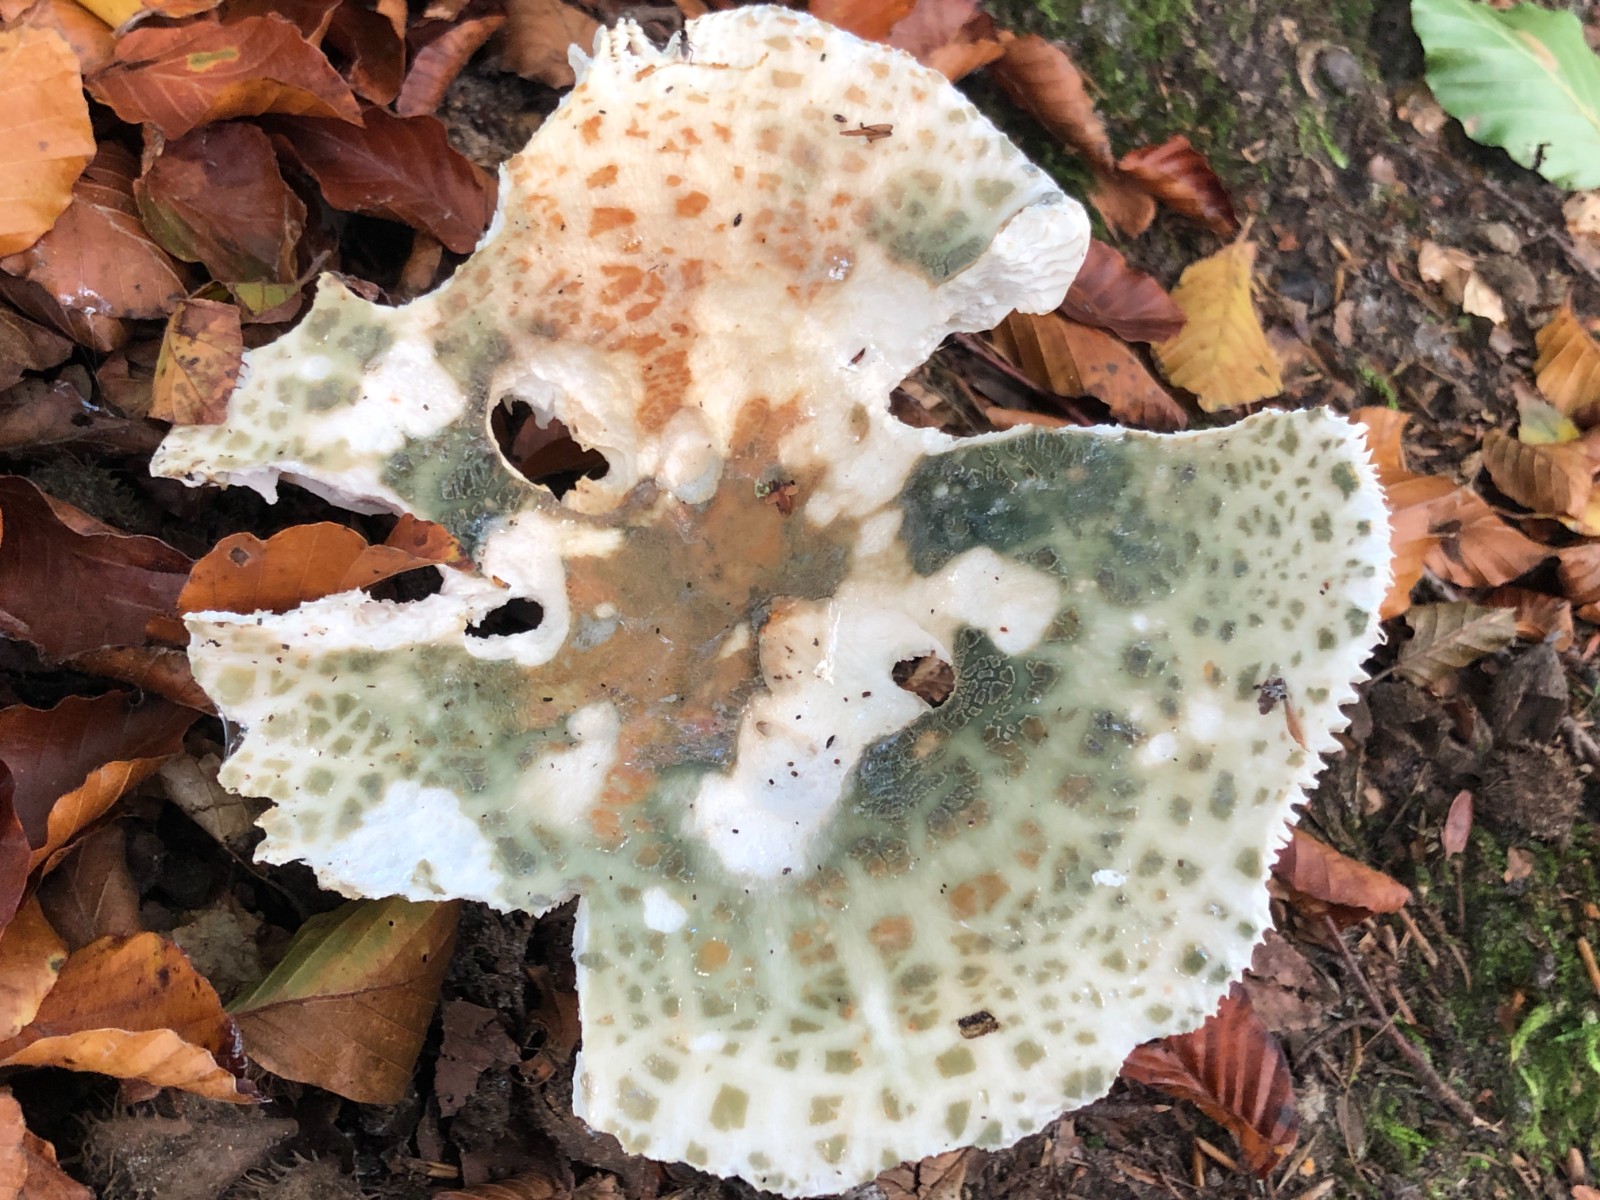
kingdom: Fungi
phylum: Basidiomycota
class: Agaricomycetes
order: Russulales
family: Russulaceae
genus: Russula
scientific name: Russula virescens
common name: spanskgrøn skørhat
